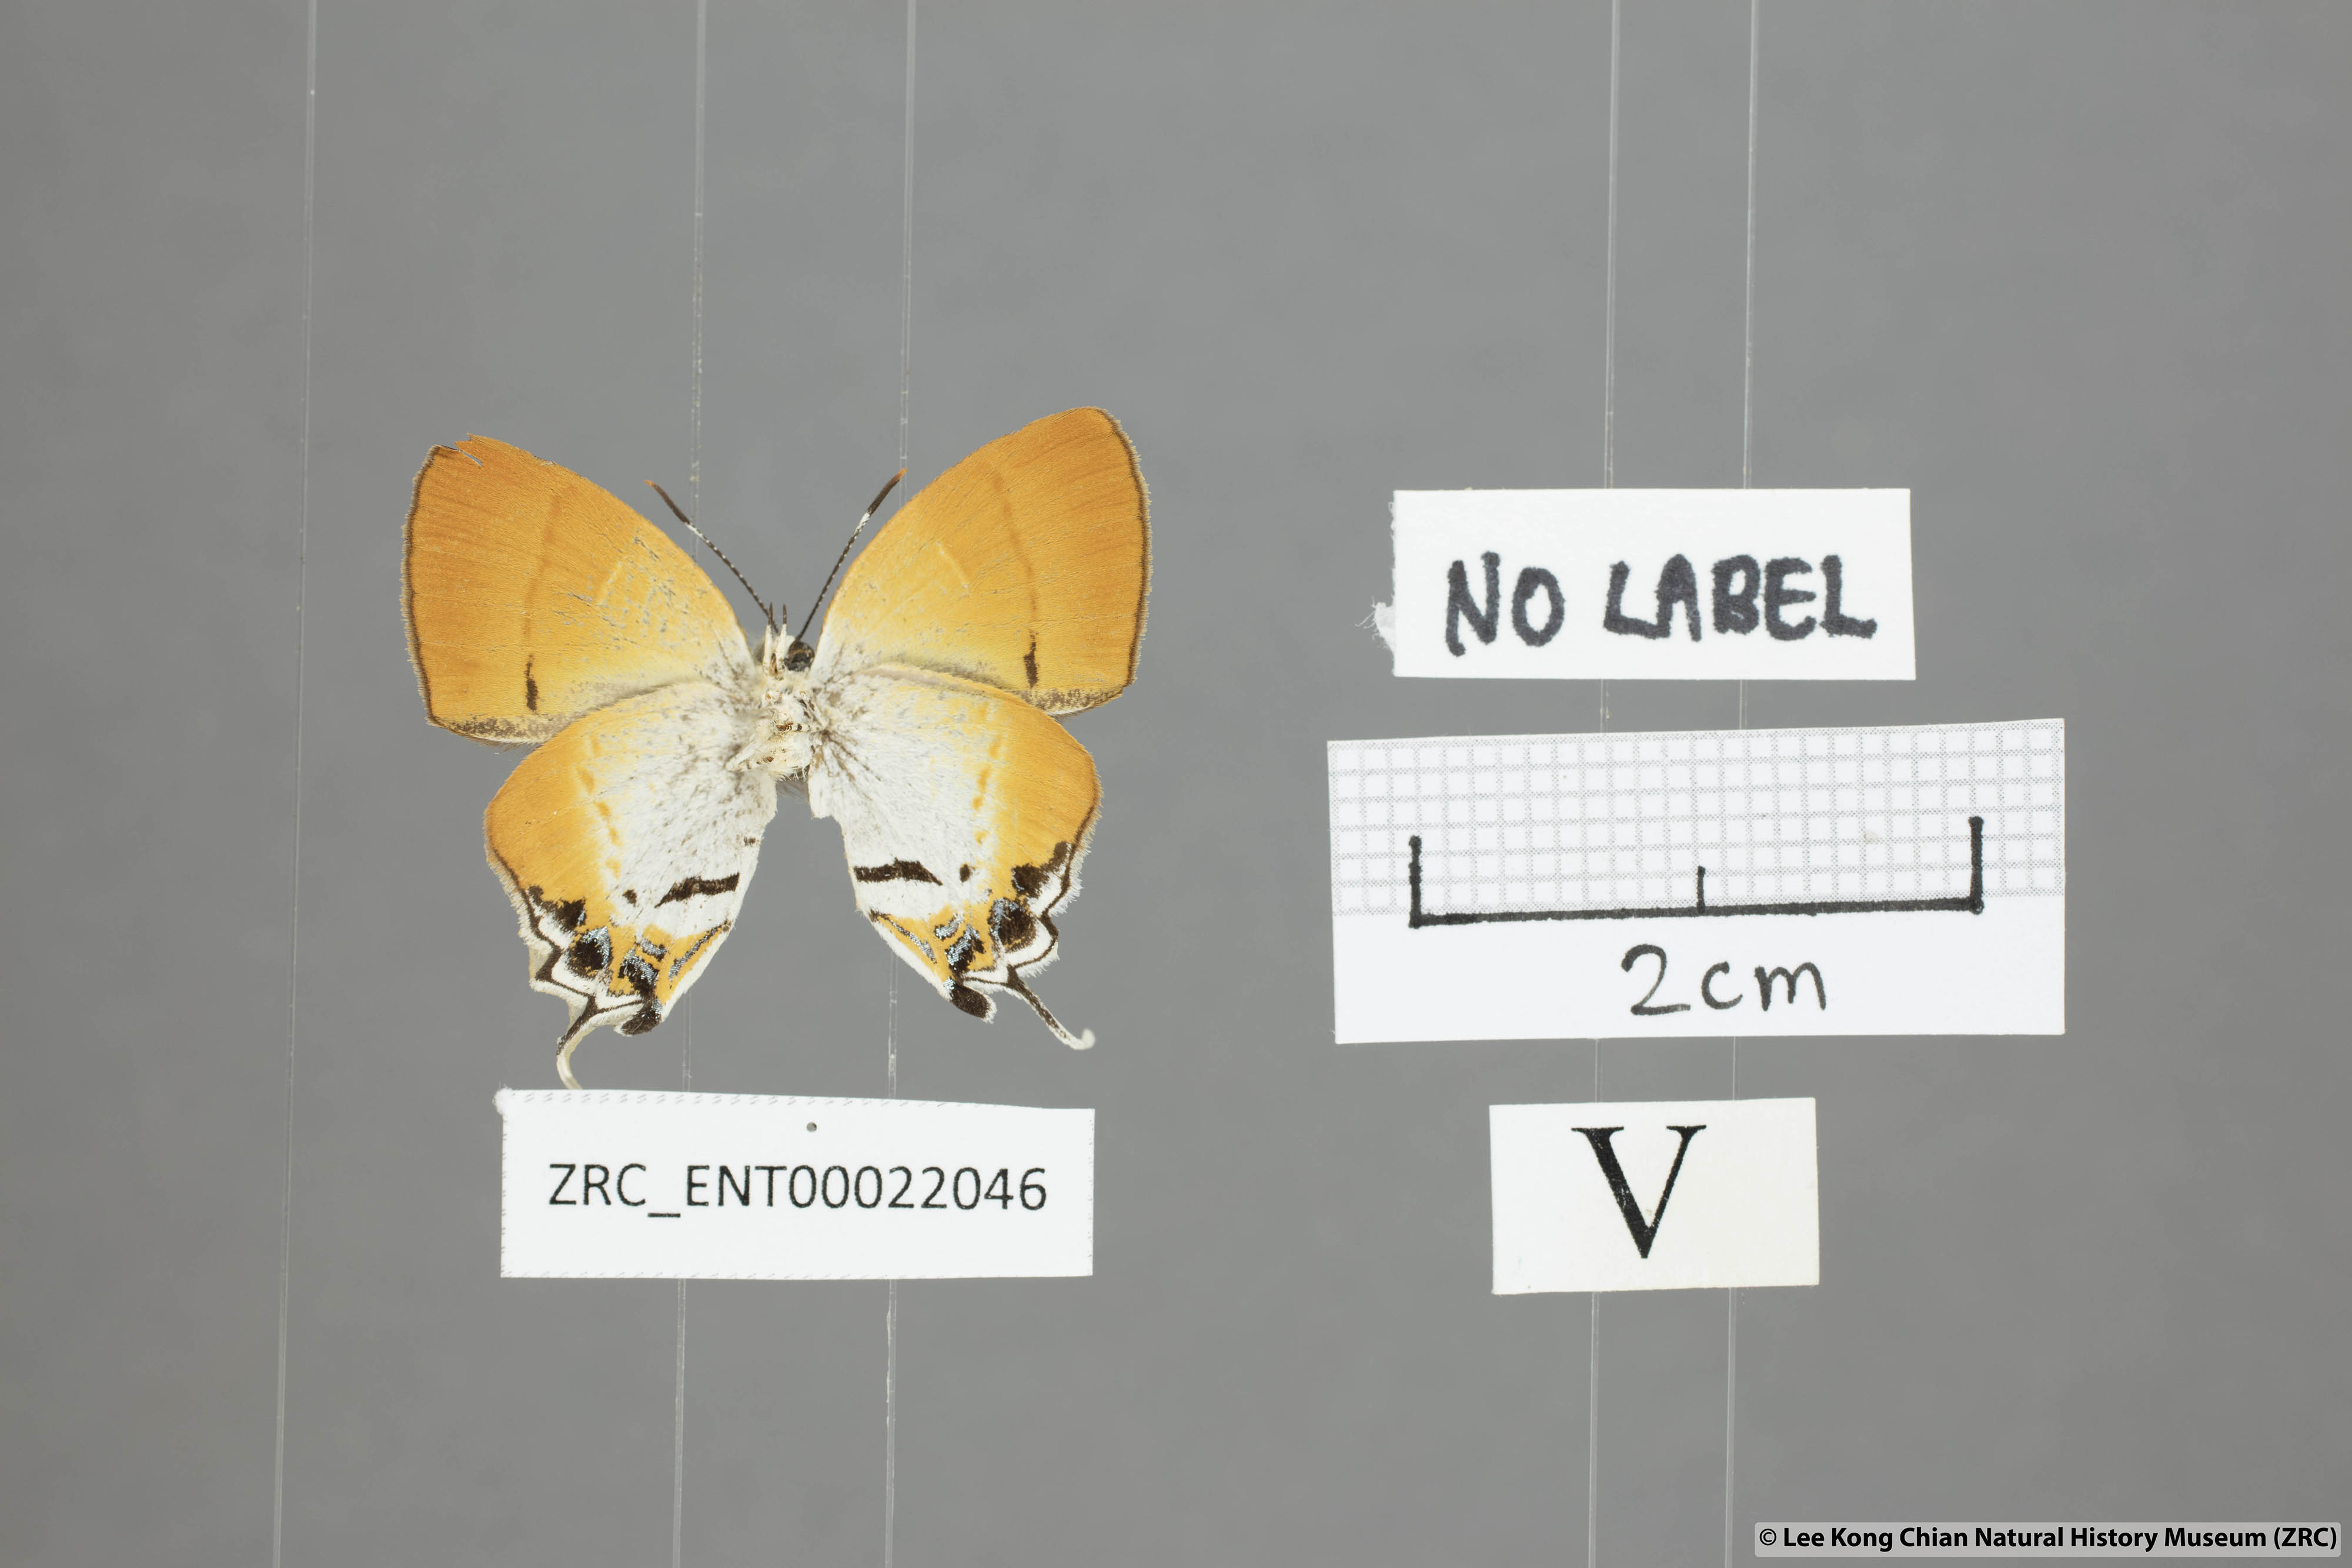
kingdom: Animalia
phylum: Arthropoda
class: Insecta
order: Lepidoptera
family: Lycaenidae
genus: Sithon
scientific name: Sithon nedymond
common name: Plush
